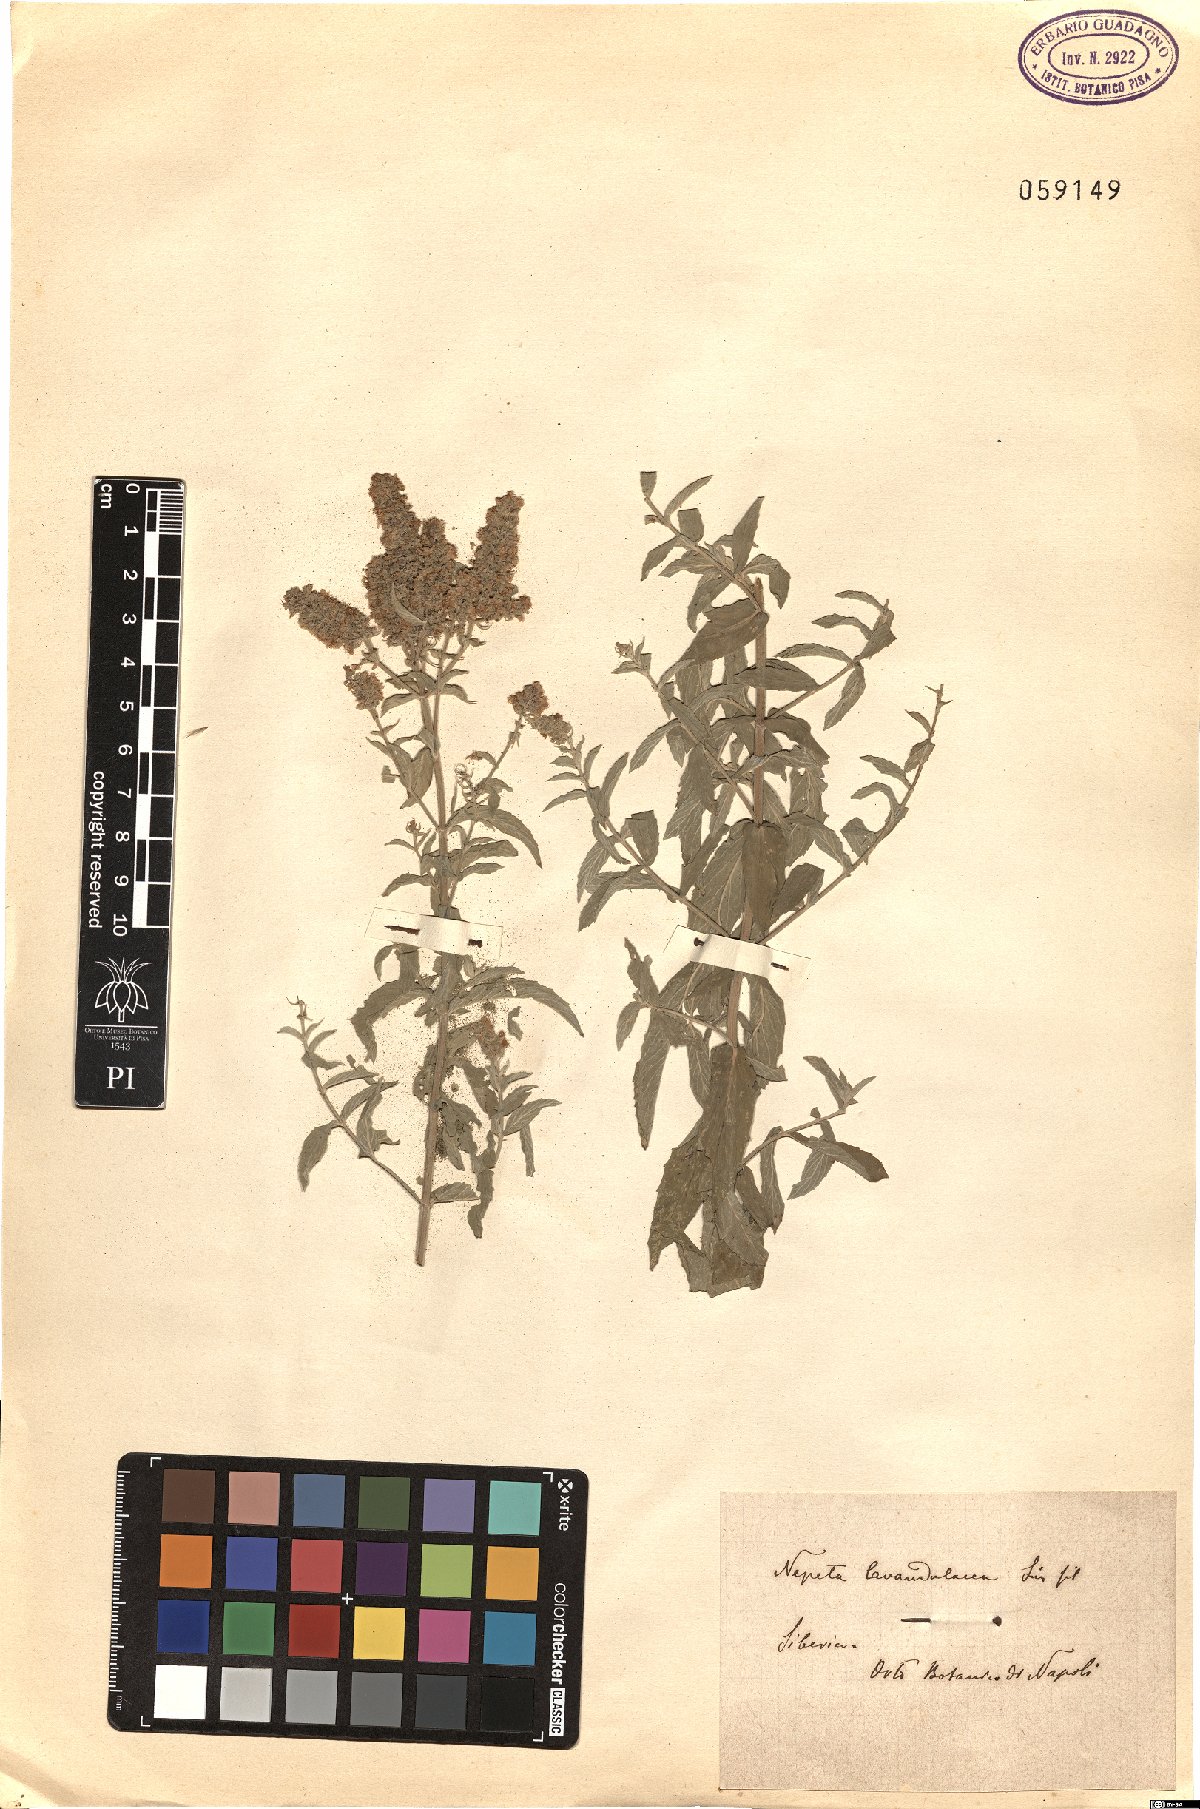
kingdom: Plantae
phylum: Tracheophyta
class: Magnoliopsida
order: Lamiales
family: Lamiaceae
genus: Nepeta
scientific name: Nepeta rugosa
